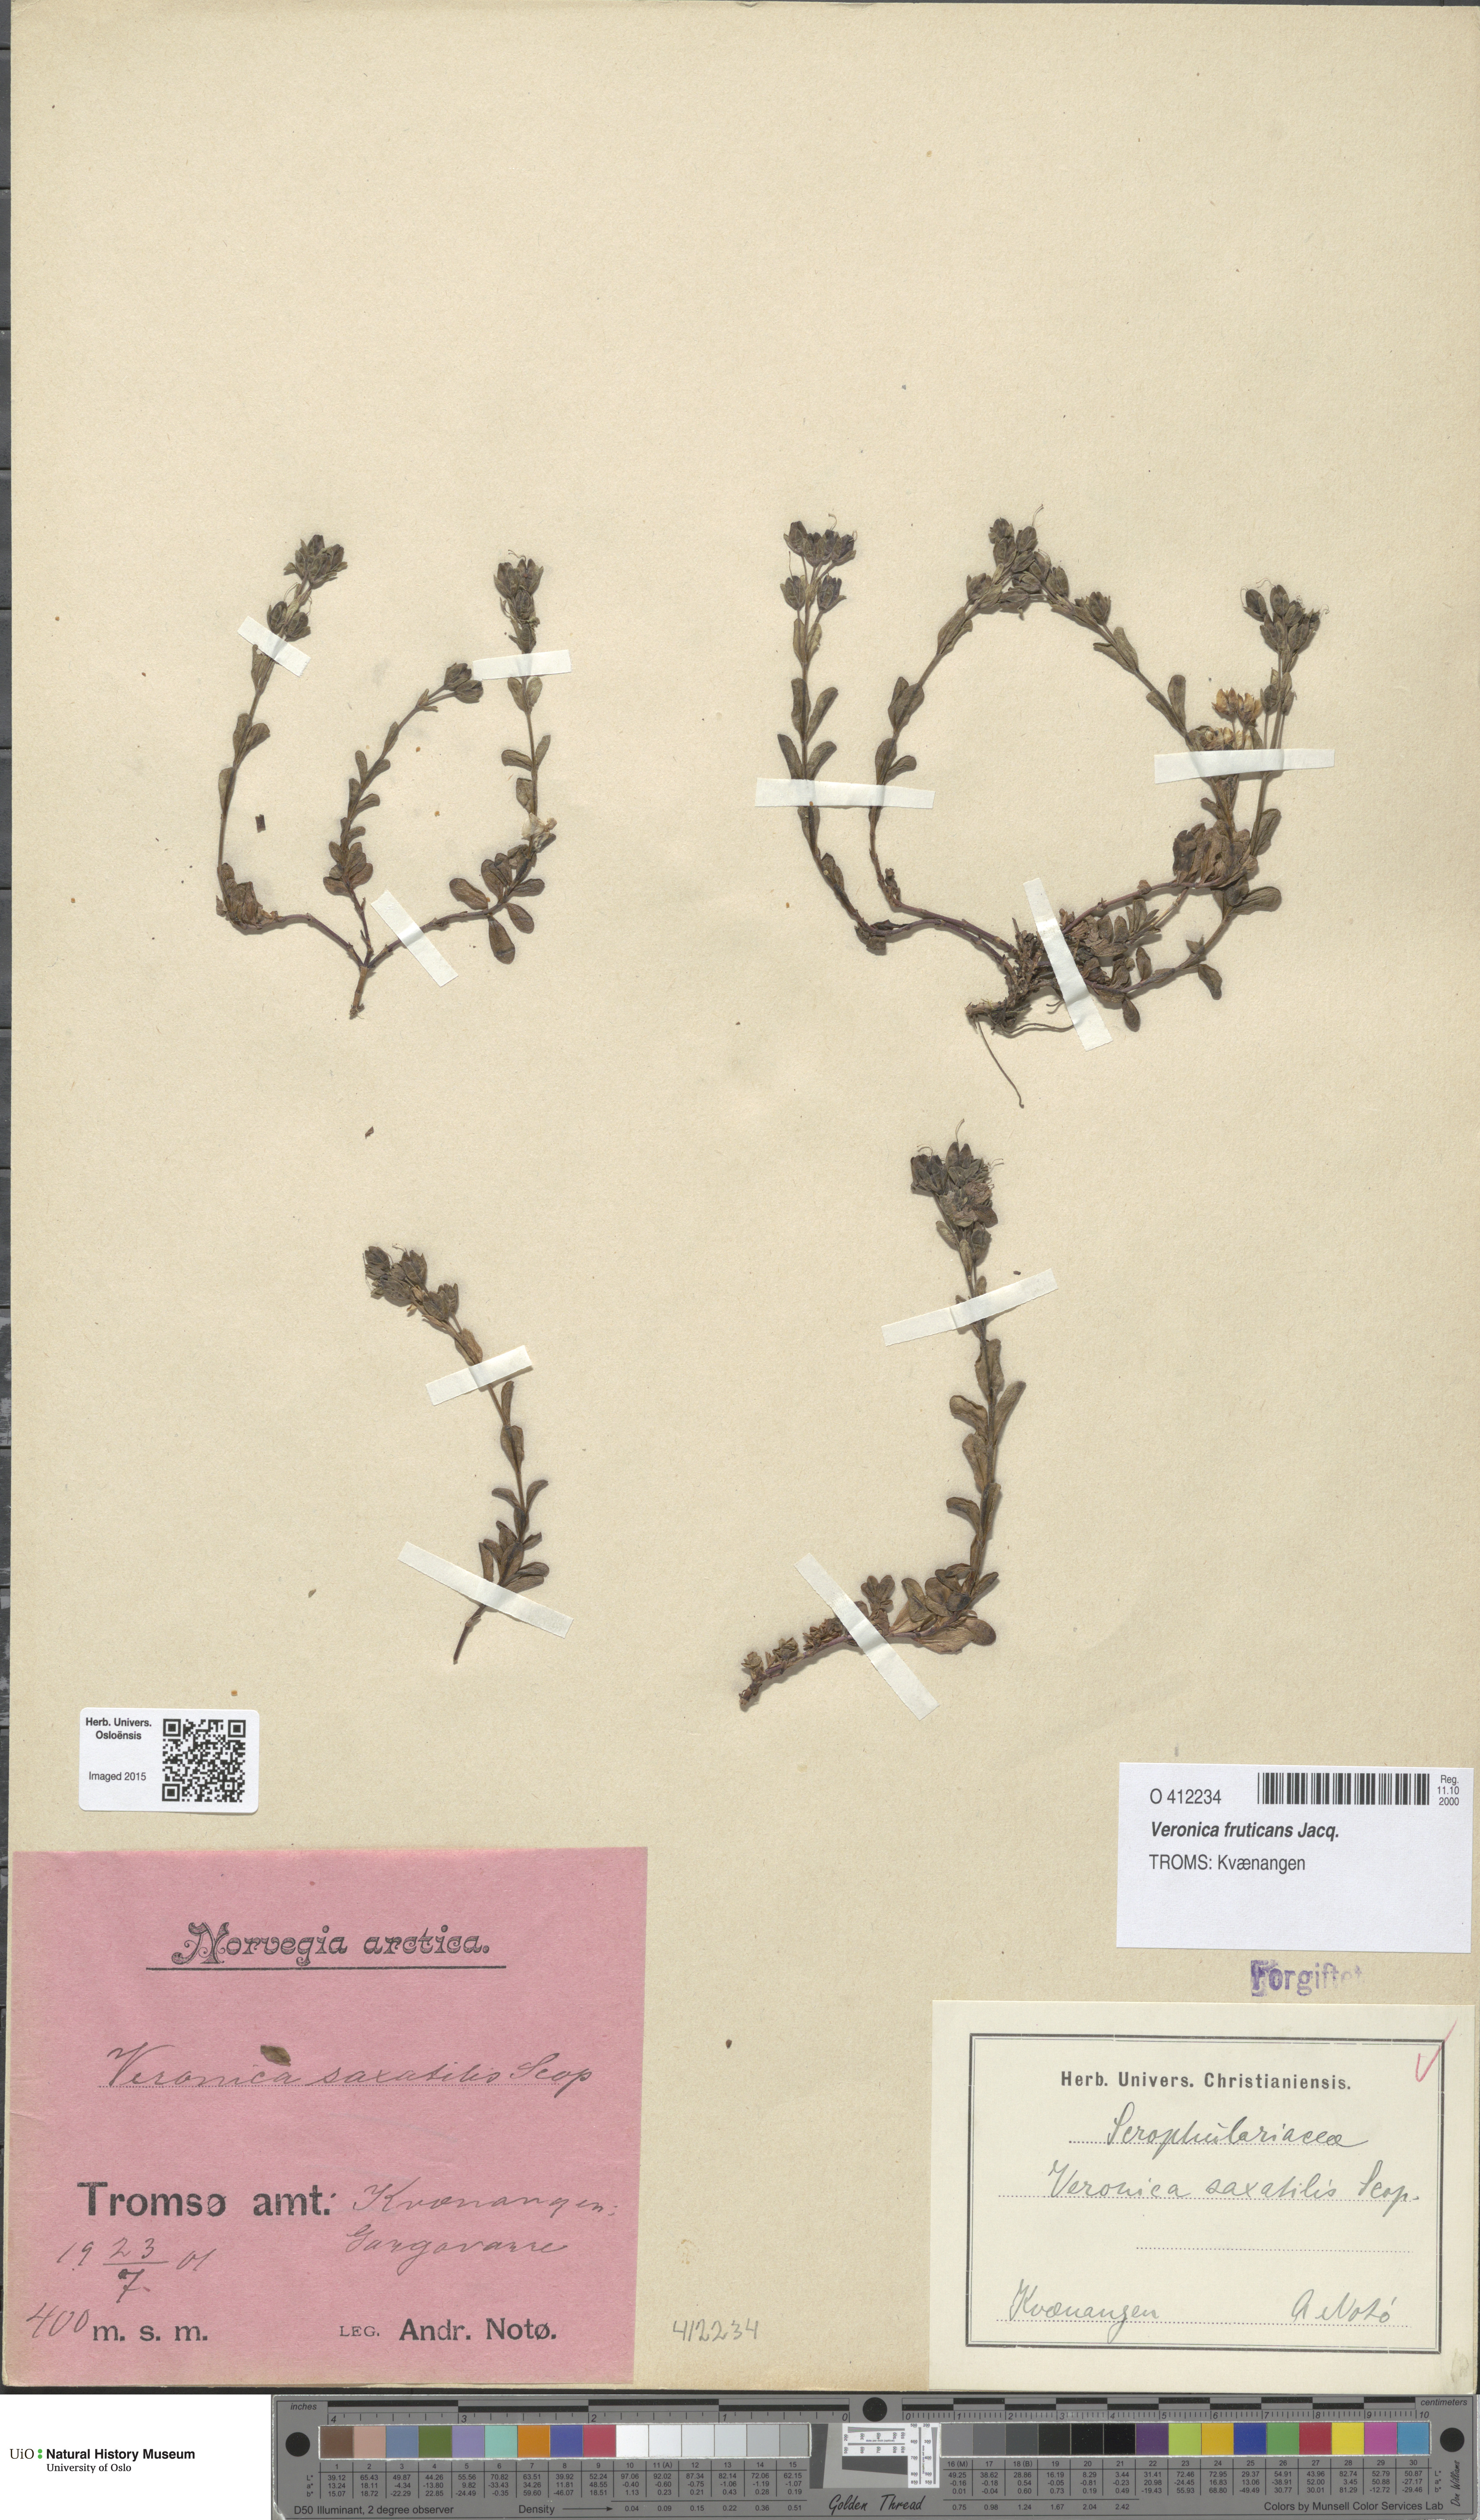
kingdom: Plantae
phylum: Tracheophyta
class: Magnoliopsida
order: Lamiales
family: Plantaginaceae
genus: Veronica
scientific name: Veronica fruticans
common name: Rock speedwell
